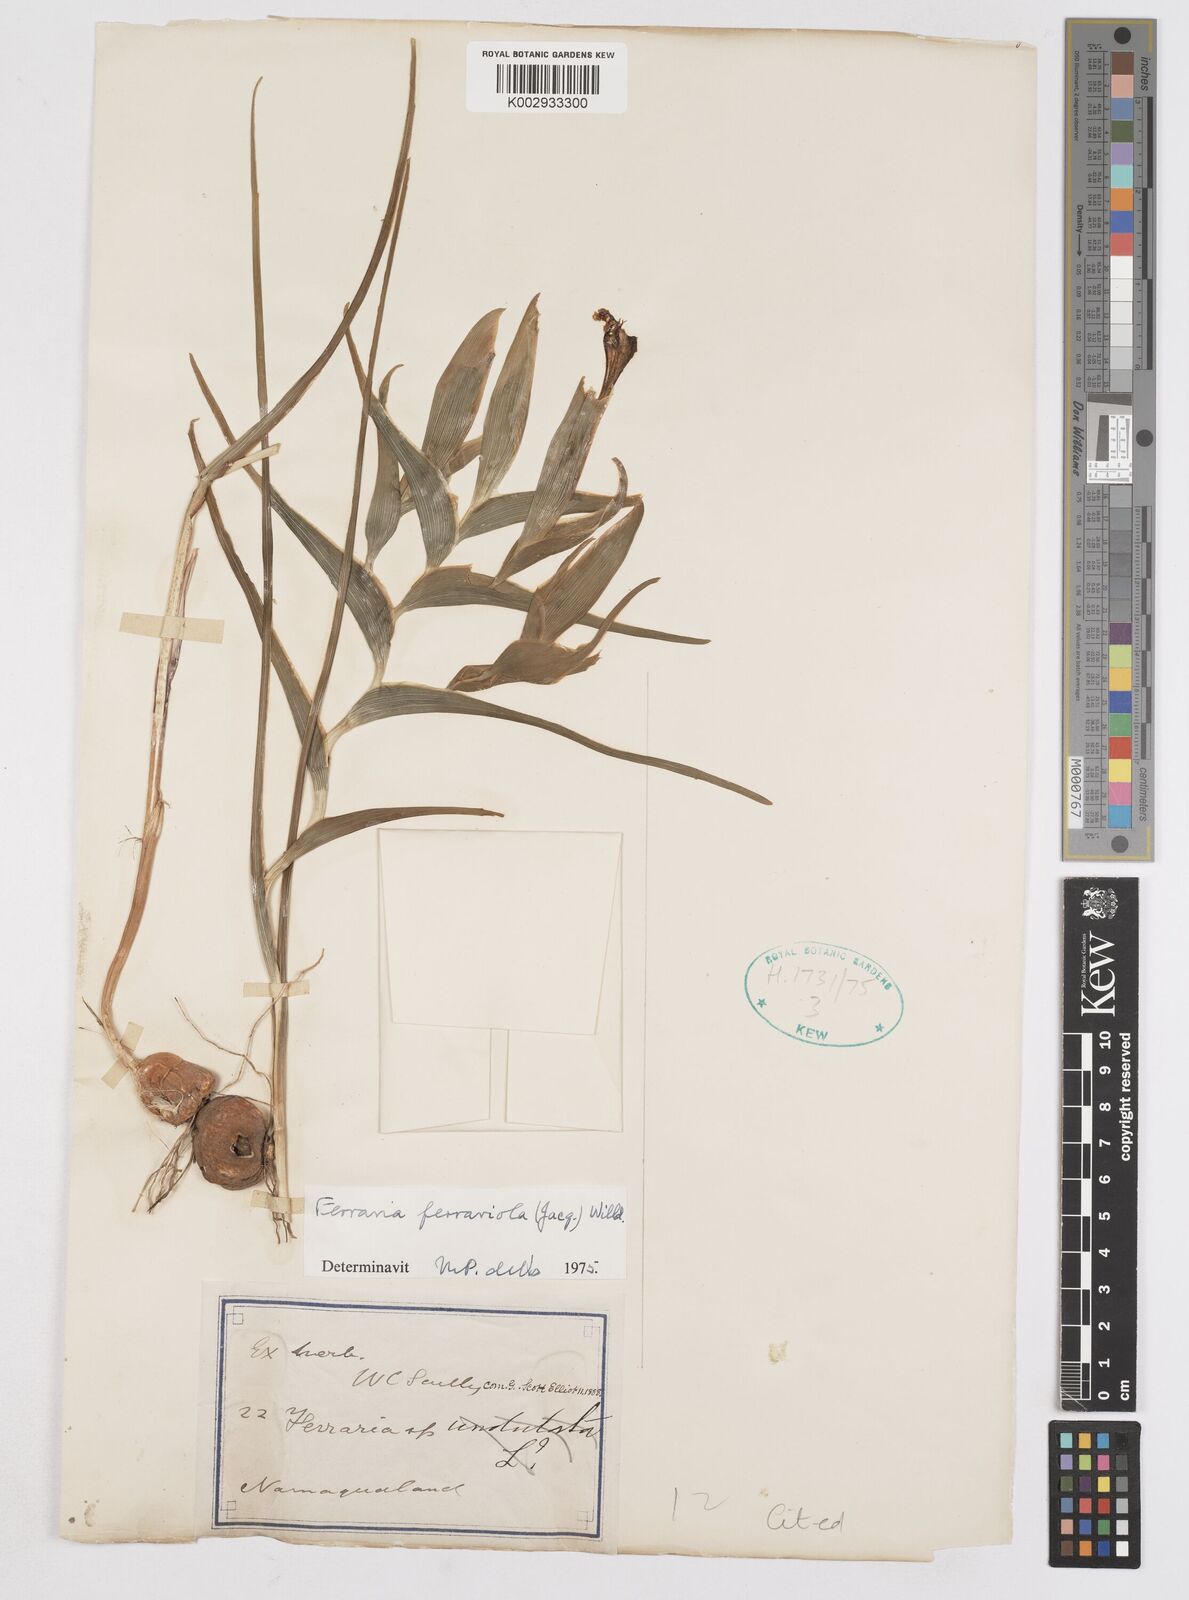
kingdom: Plantae
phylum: Tracheophyta
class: Liliopsida
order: Asparagales
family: Iridaceae
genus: Ferraria
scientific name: Ferraria ferrariola
